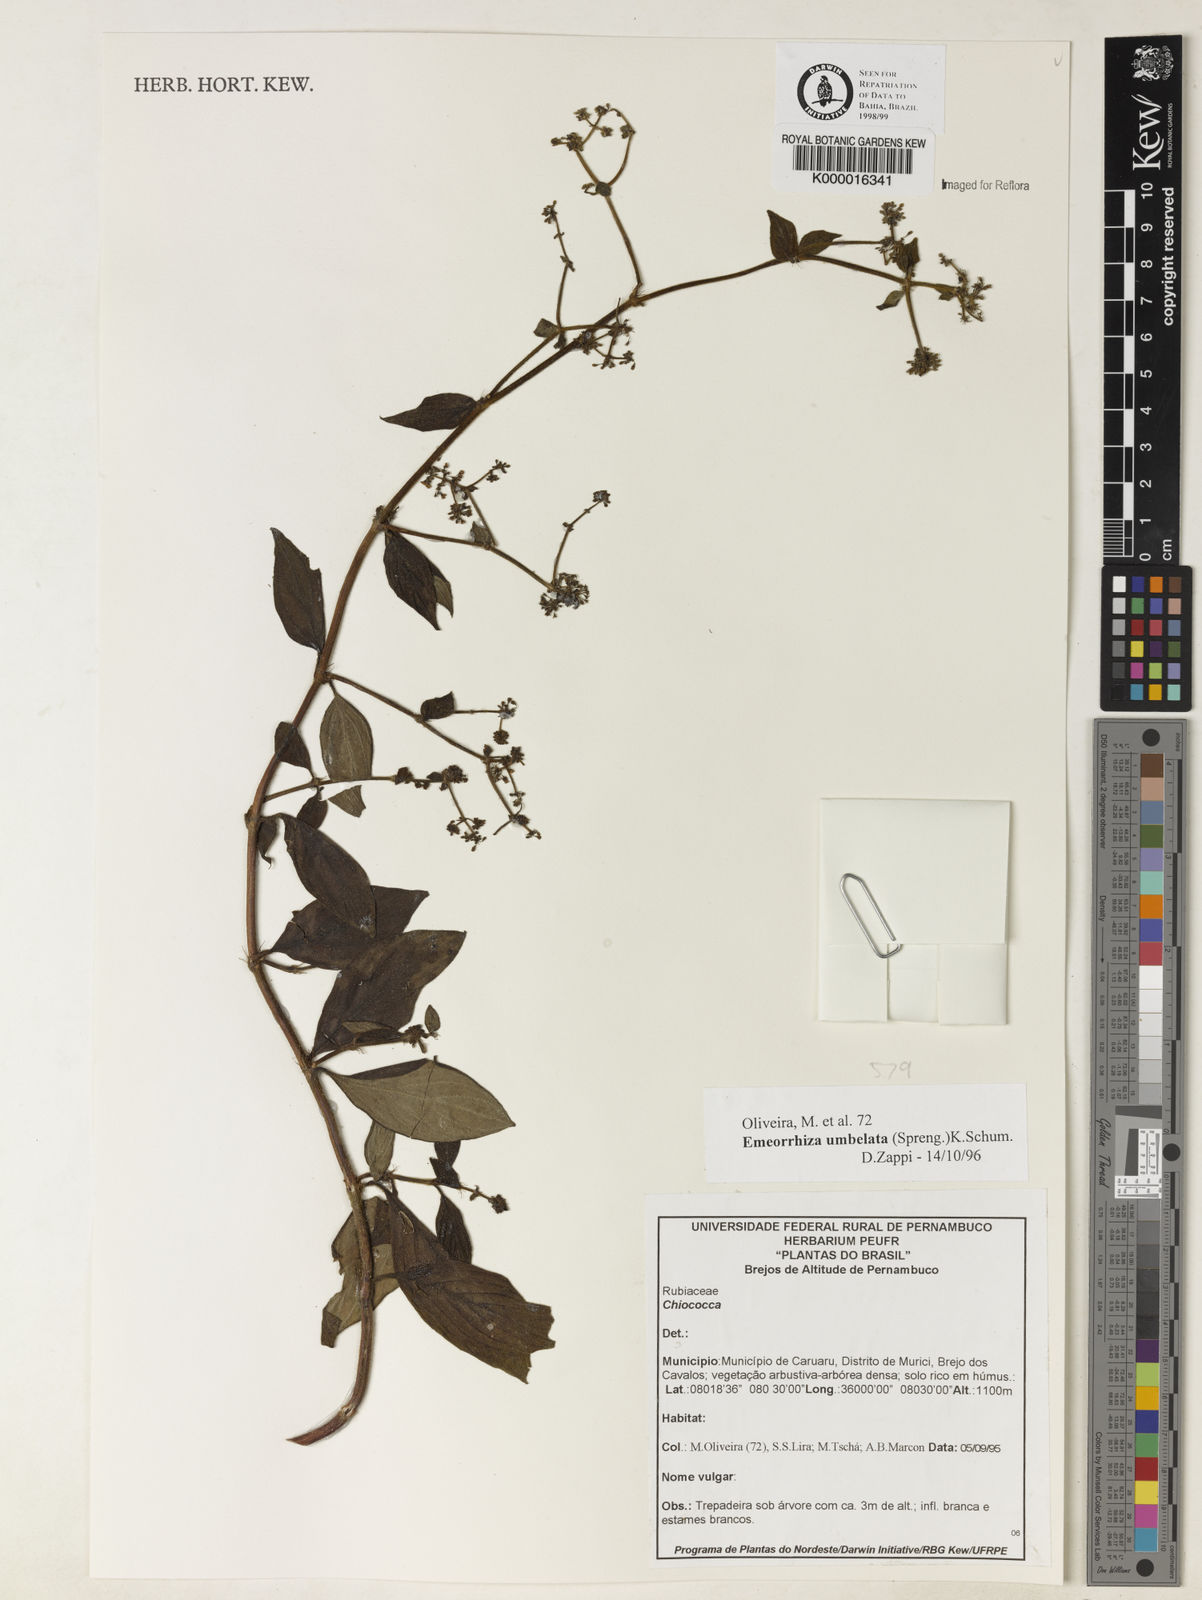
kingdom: Plantae
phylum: Tracheophyta
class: Magnoliopsida
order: Gentianales
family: Rubiaceae
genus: Emmeorhiza
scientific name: Emmeorhiza umbellata
